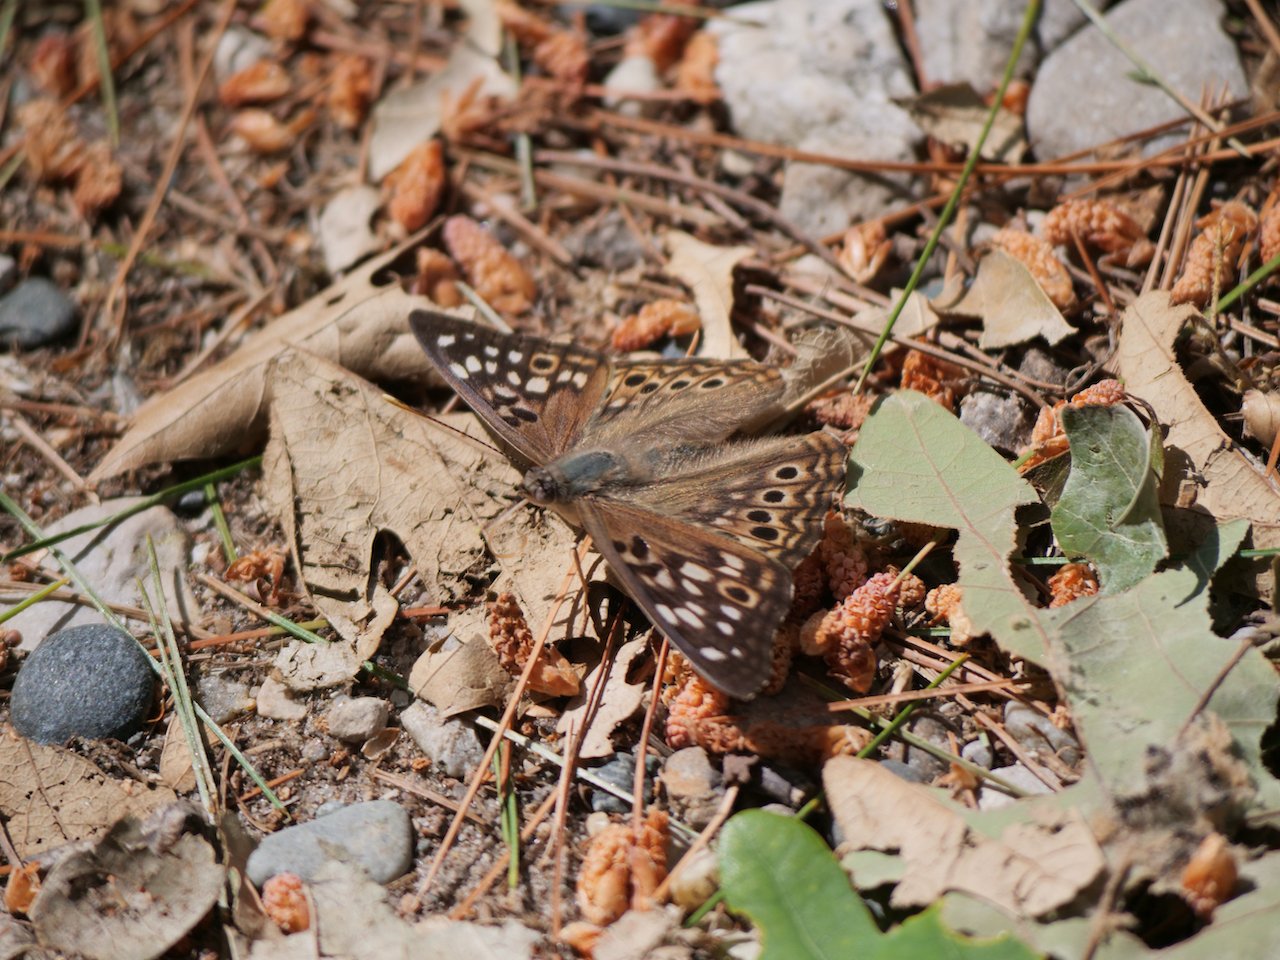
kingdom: Animalia
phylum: Arthropoda
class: Insecta
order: Lepidoptera
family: Nymphalidae
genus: Asterocampa
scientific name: Asterocampa celtis
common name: Hackberry Emperor
